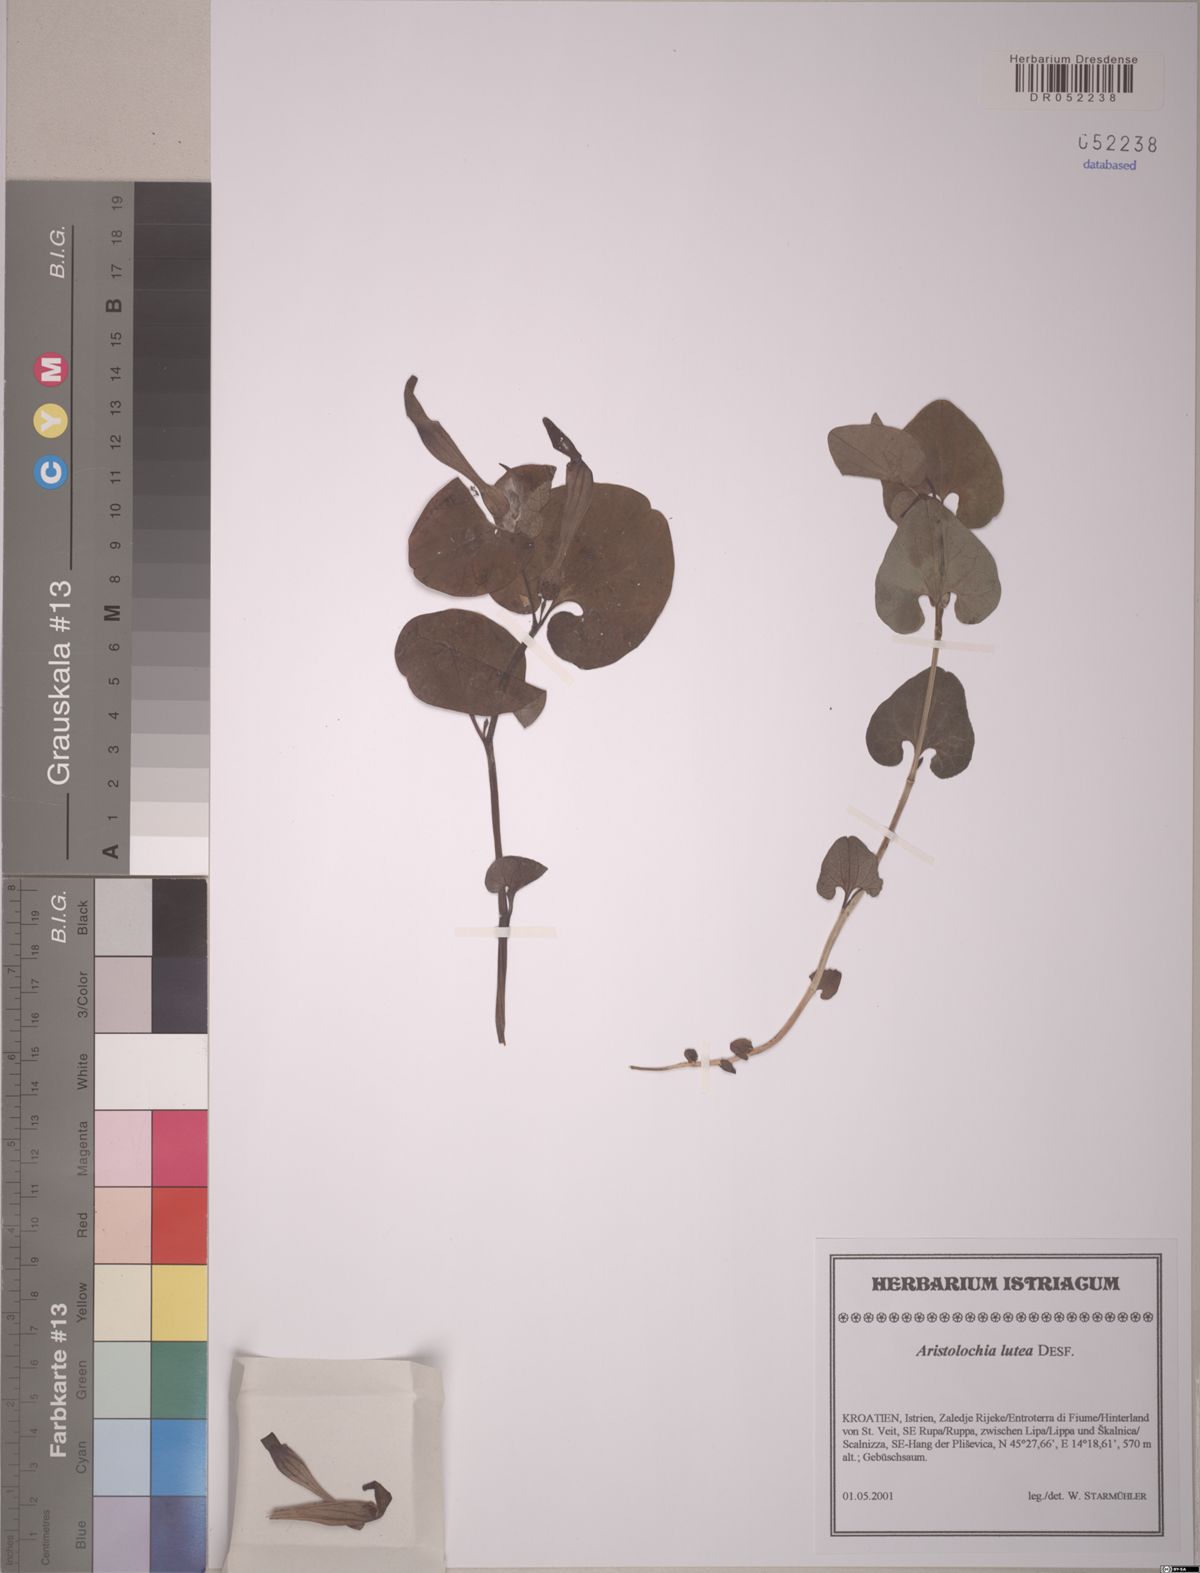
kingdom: Plantae
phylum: Tracheophyta
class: Magnoliopsida
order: Piperales
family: Aristolochiaceae
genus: Aristolochia
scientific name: Aristolochia lutea
